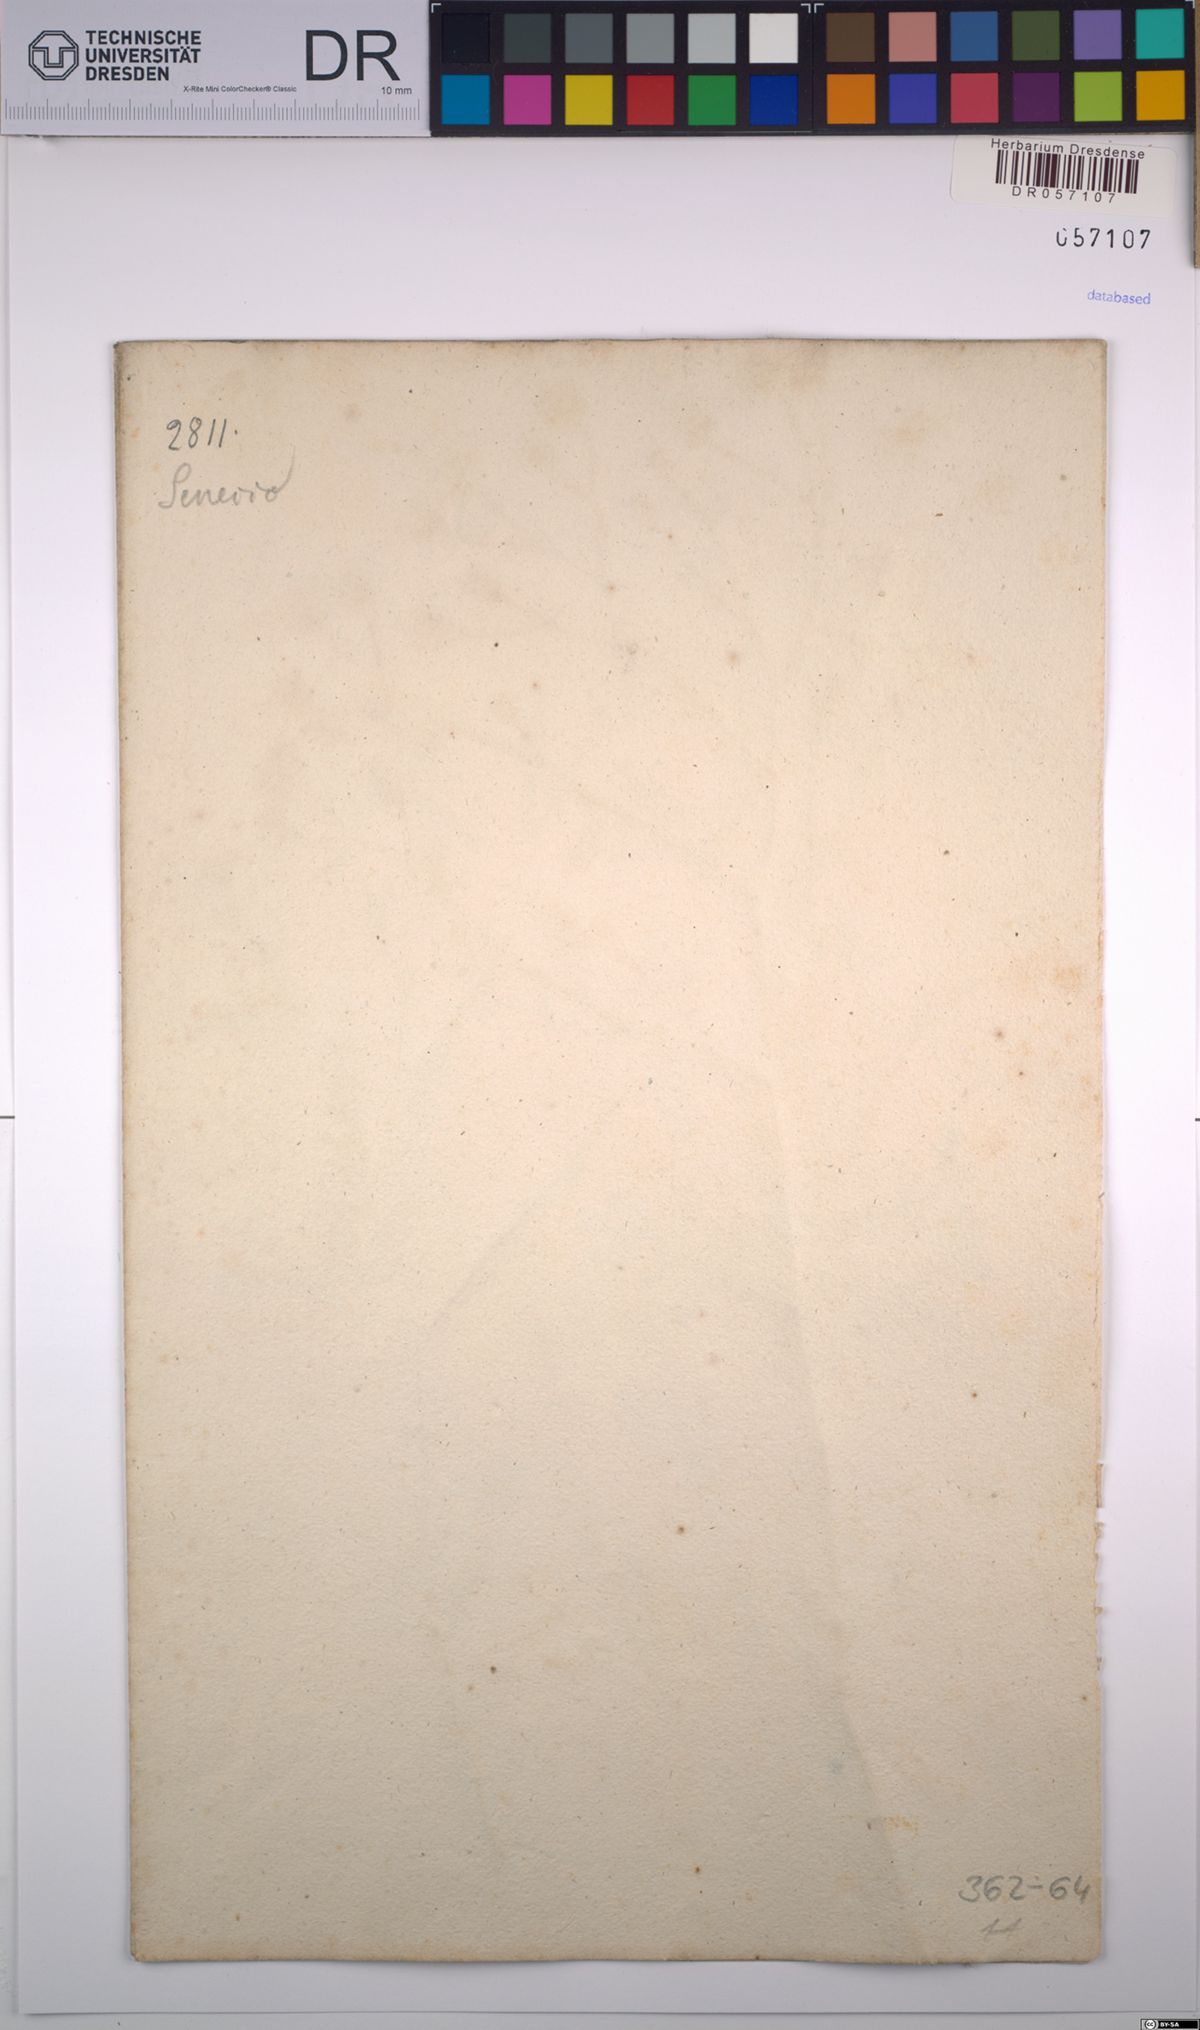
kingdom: Plantae
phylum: Tracheophyta
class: Magnoliopsida
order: Asterales
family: Asteraceae
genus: Senecio
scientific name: Senecio viscosus
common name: Sticky groundsel
